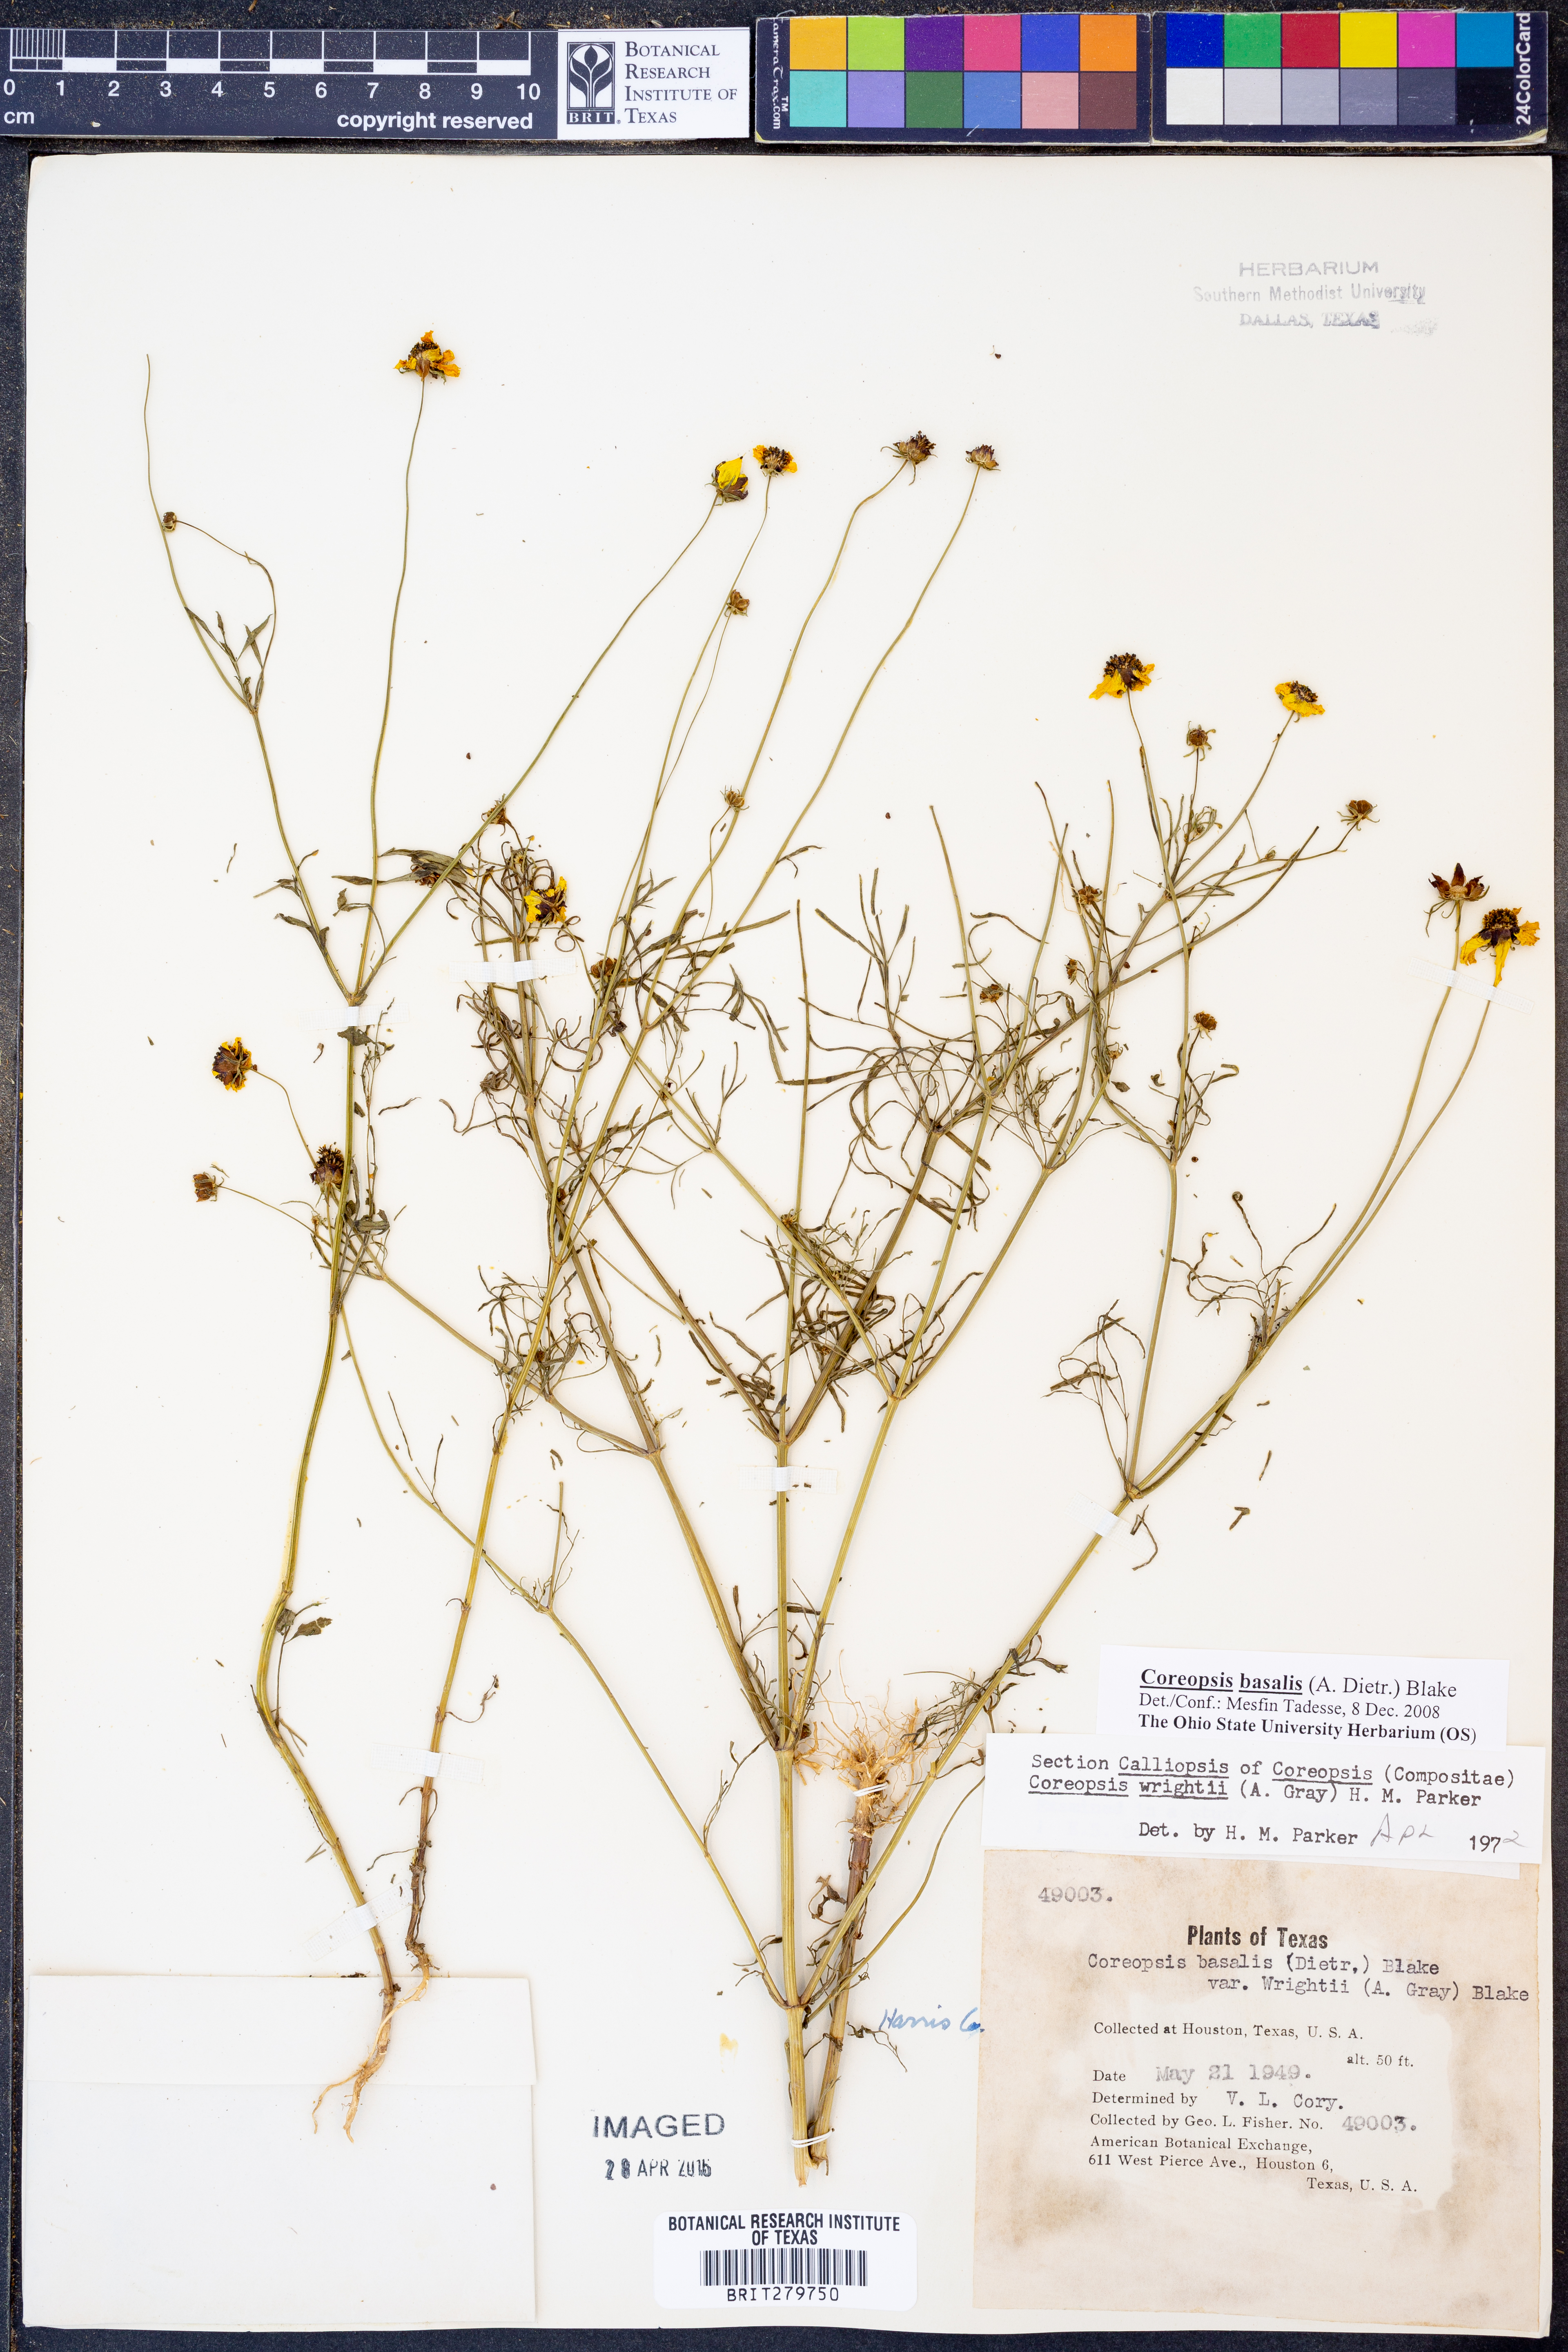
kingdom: Plantae
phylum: Tracheophyta
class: Magnoliopsida
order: Asterales
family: Asteraceae
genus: Coreopsis
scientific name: Coreopsis basalis
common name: Golden-mane coreopsis
